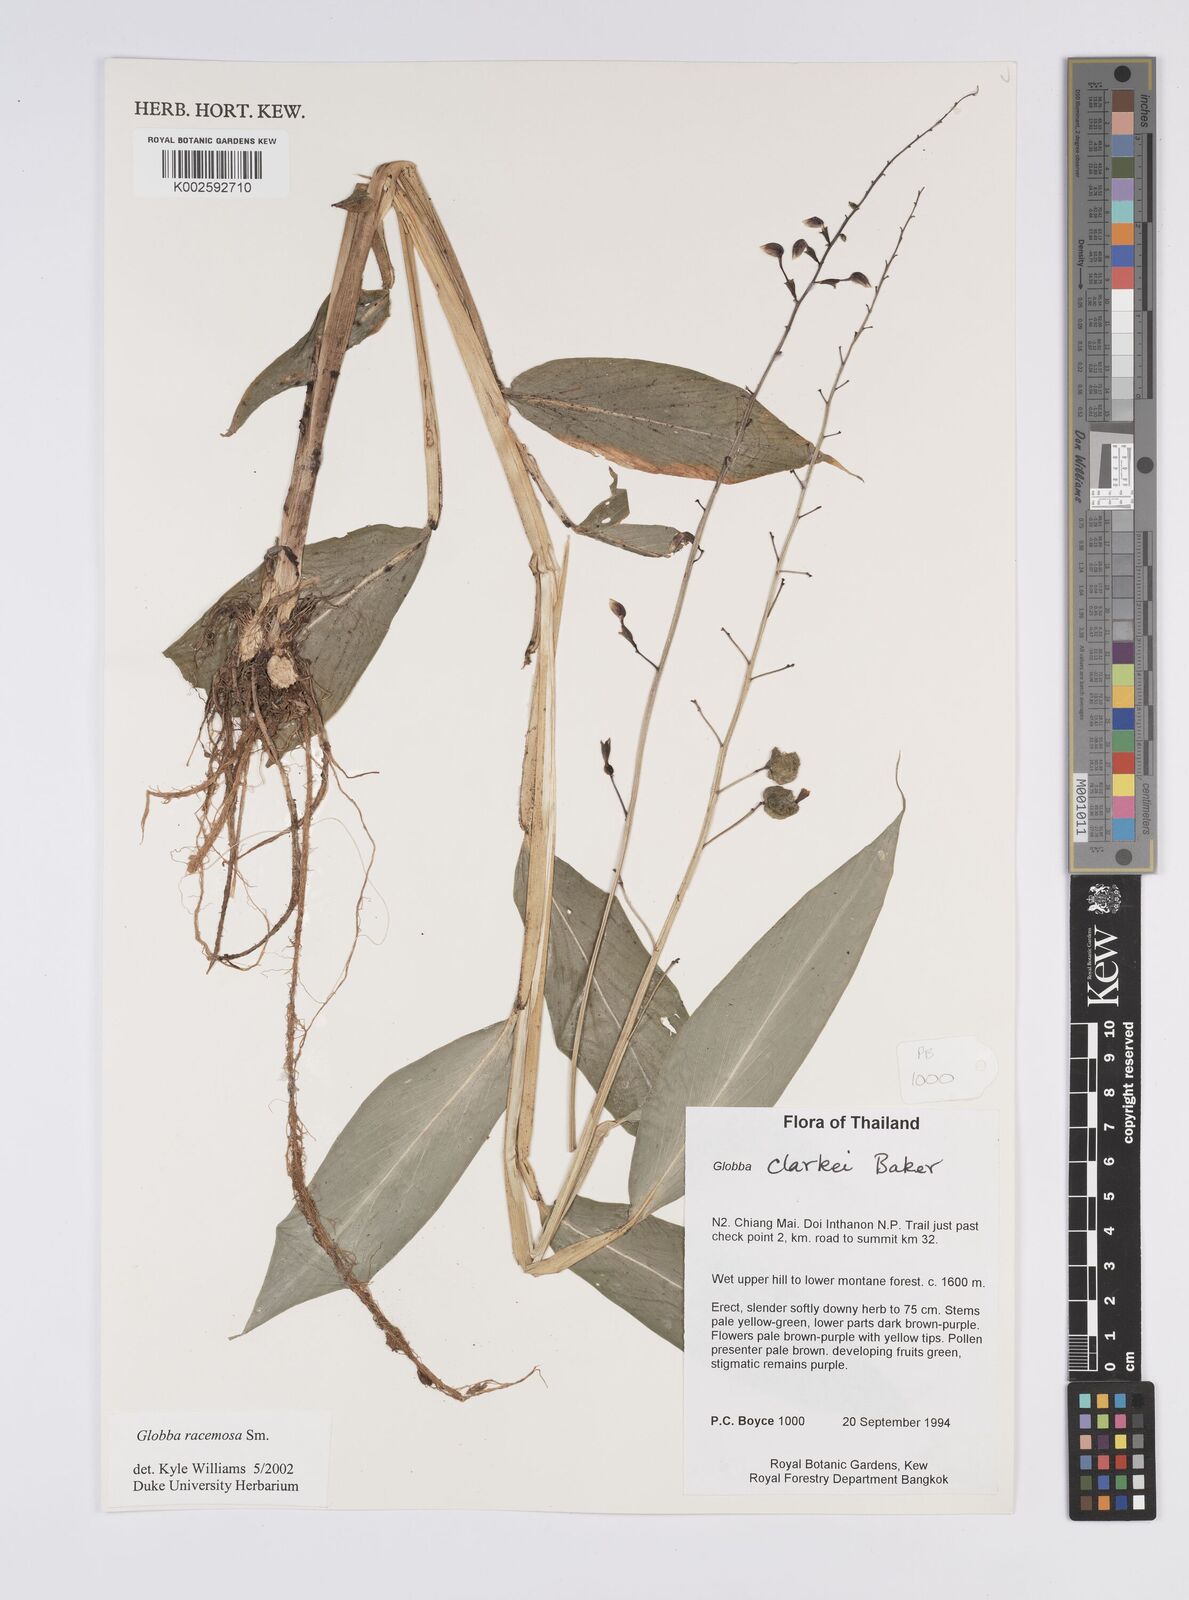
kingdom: Plantae
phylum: Tracheophyta
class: Liliopsida
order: Zingiberales
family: Zingiberaceae
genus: Globba
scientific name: Globba racemosa
